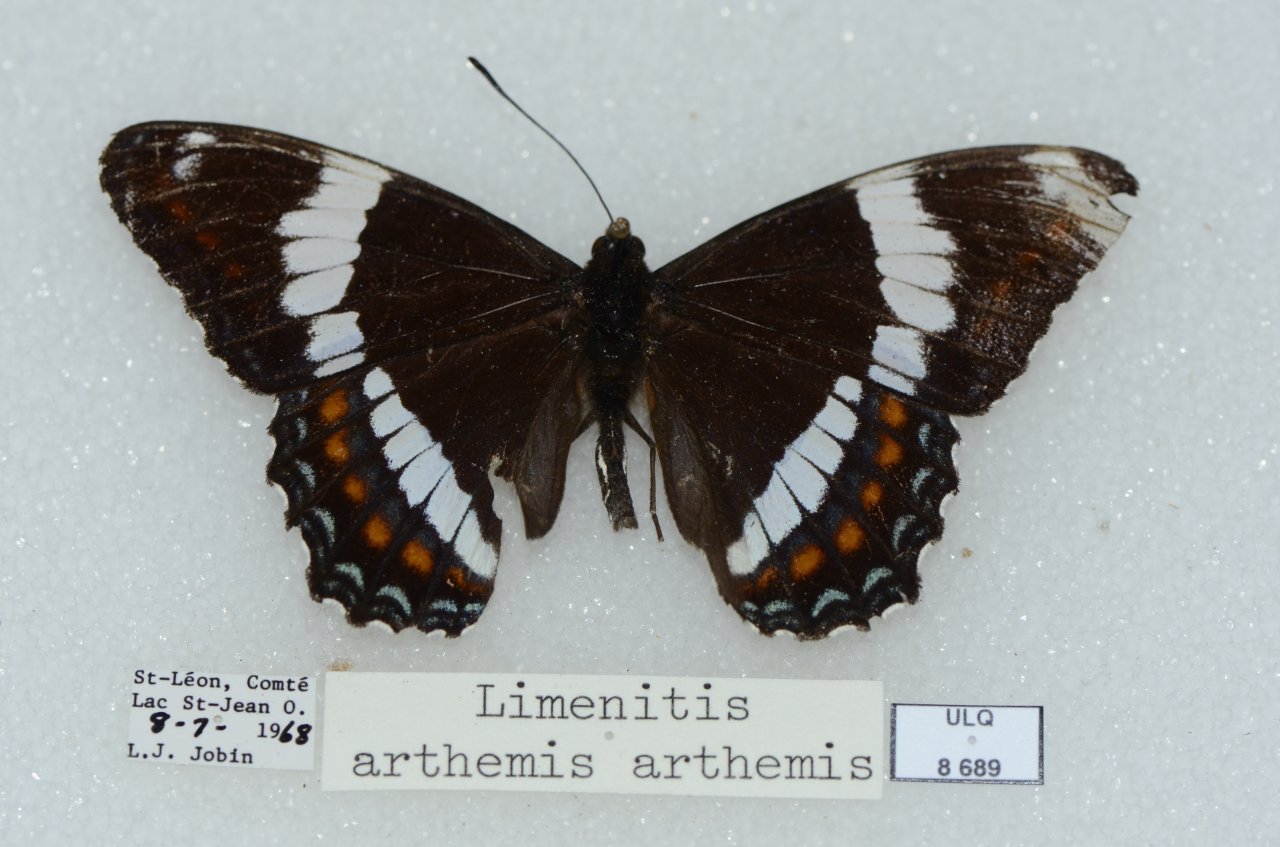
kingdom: Animalia
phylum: Arthropoda
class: Insecta
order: Lepidoptera
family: Nymphalidae
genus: Limenitis
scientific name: Limenitis arthemis
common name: Red-spotted Admiral
